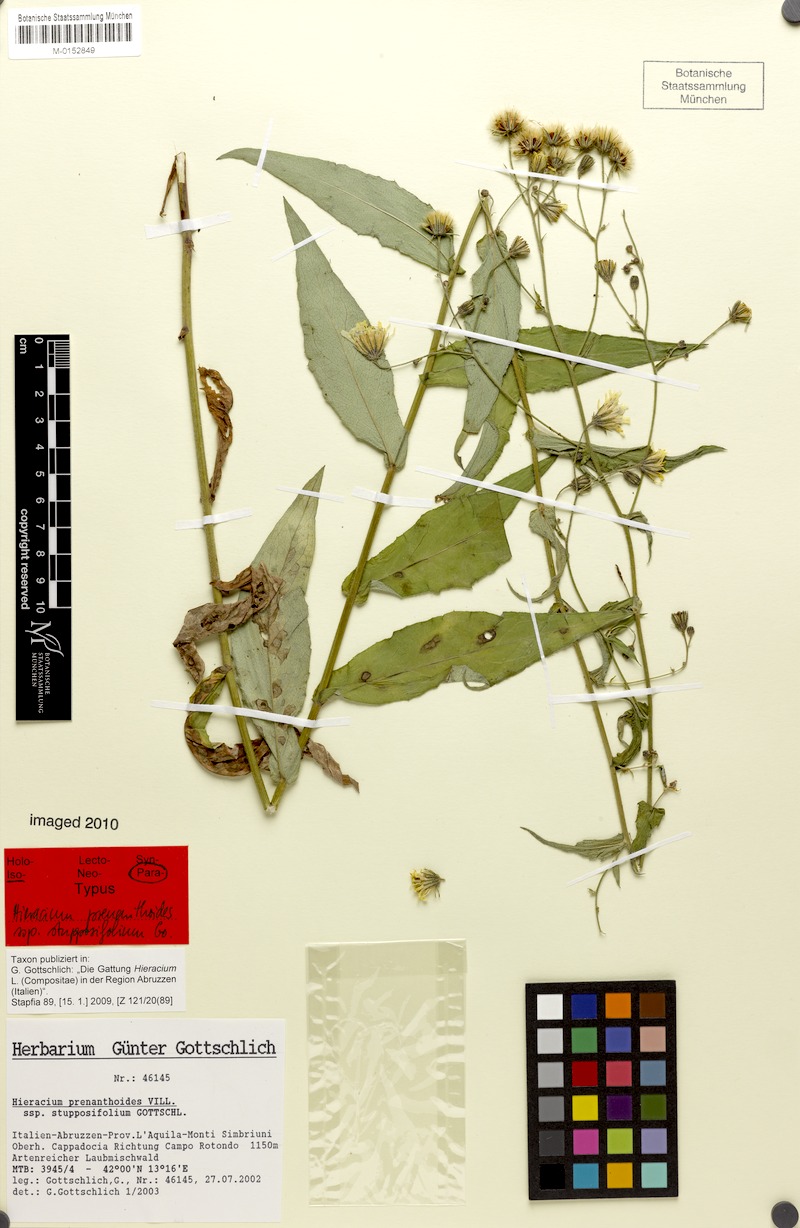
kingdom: Plantae
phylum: Tracheophyta
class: Magnoliopsida
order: Asterales
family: Asteraceae
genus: Hieracium
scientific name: Hieracium prenanthoides
